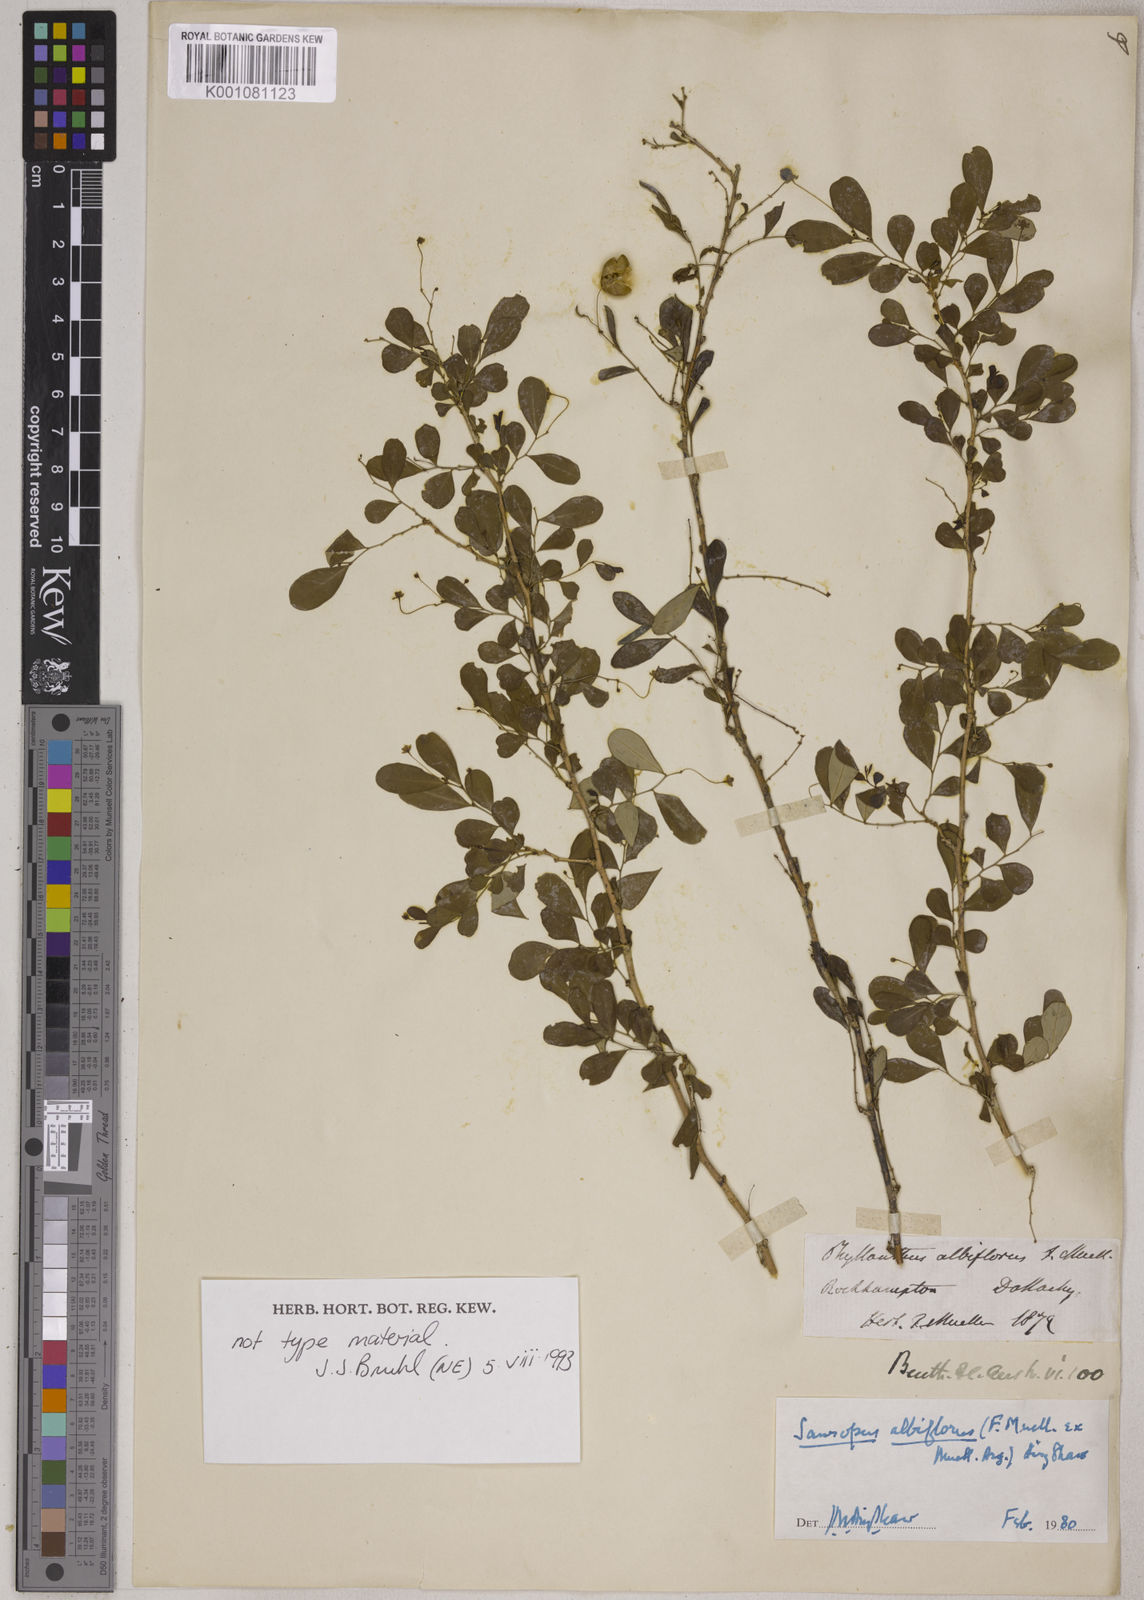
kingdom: Animalia
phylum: Chordata
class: Amphibia
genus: Sauropus
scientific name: Sauropus
